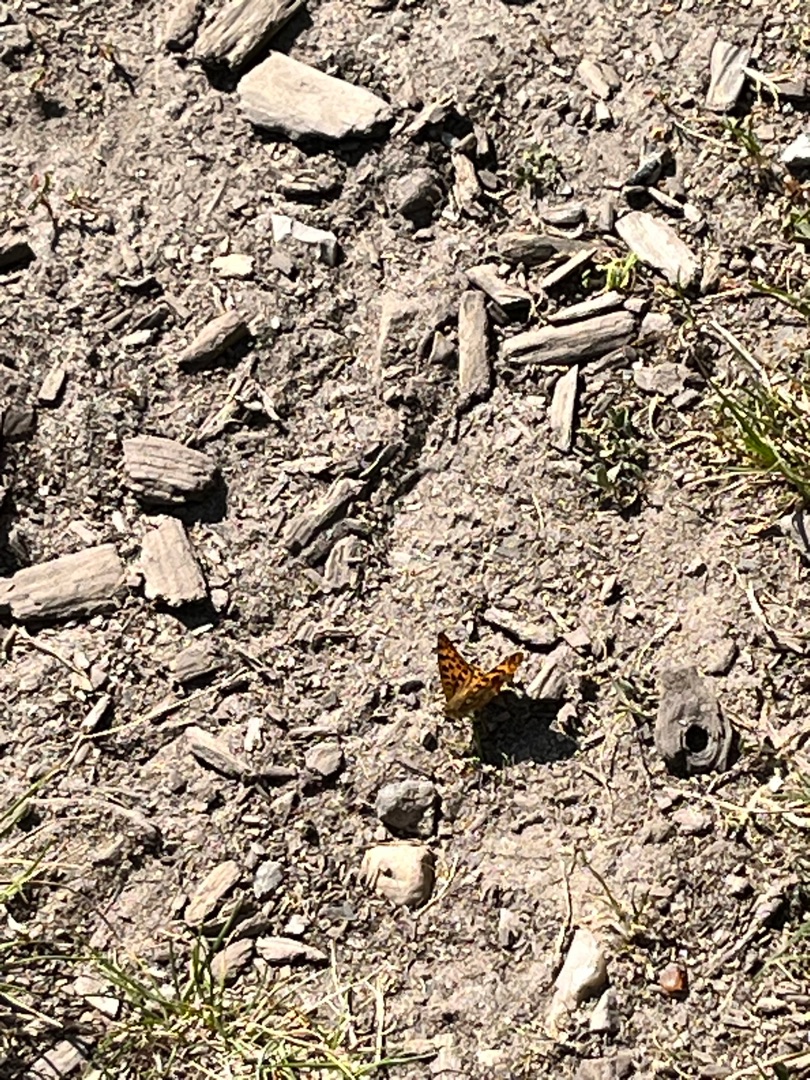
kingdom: Animalia
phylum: Arthropoda
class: Insecta
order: Lepidoptera
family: Nymphalidae
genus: Issoria
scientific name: Issoria lathonia
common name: Storplettet perlemorsommerfugl
